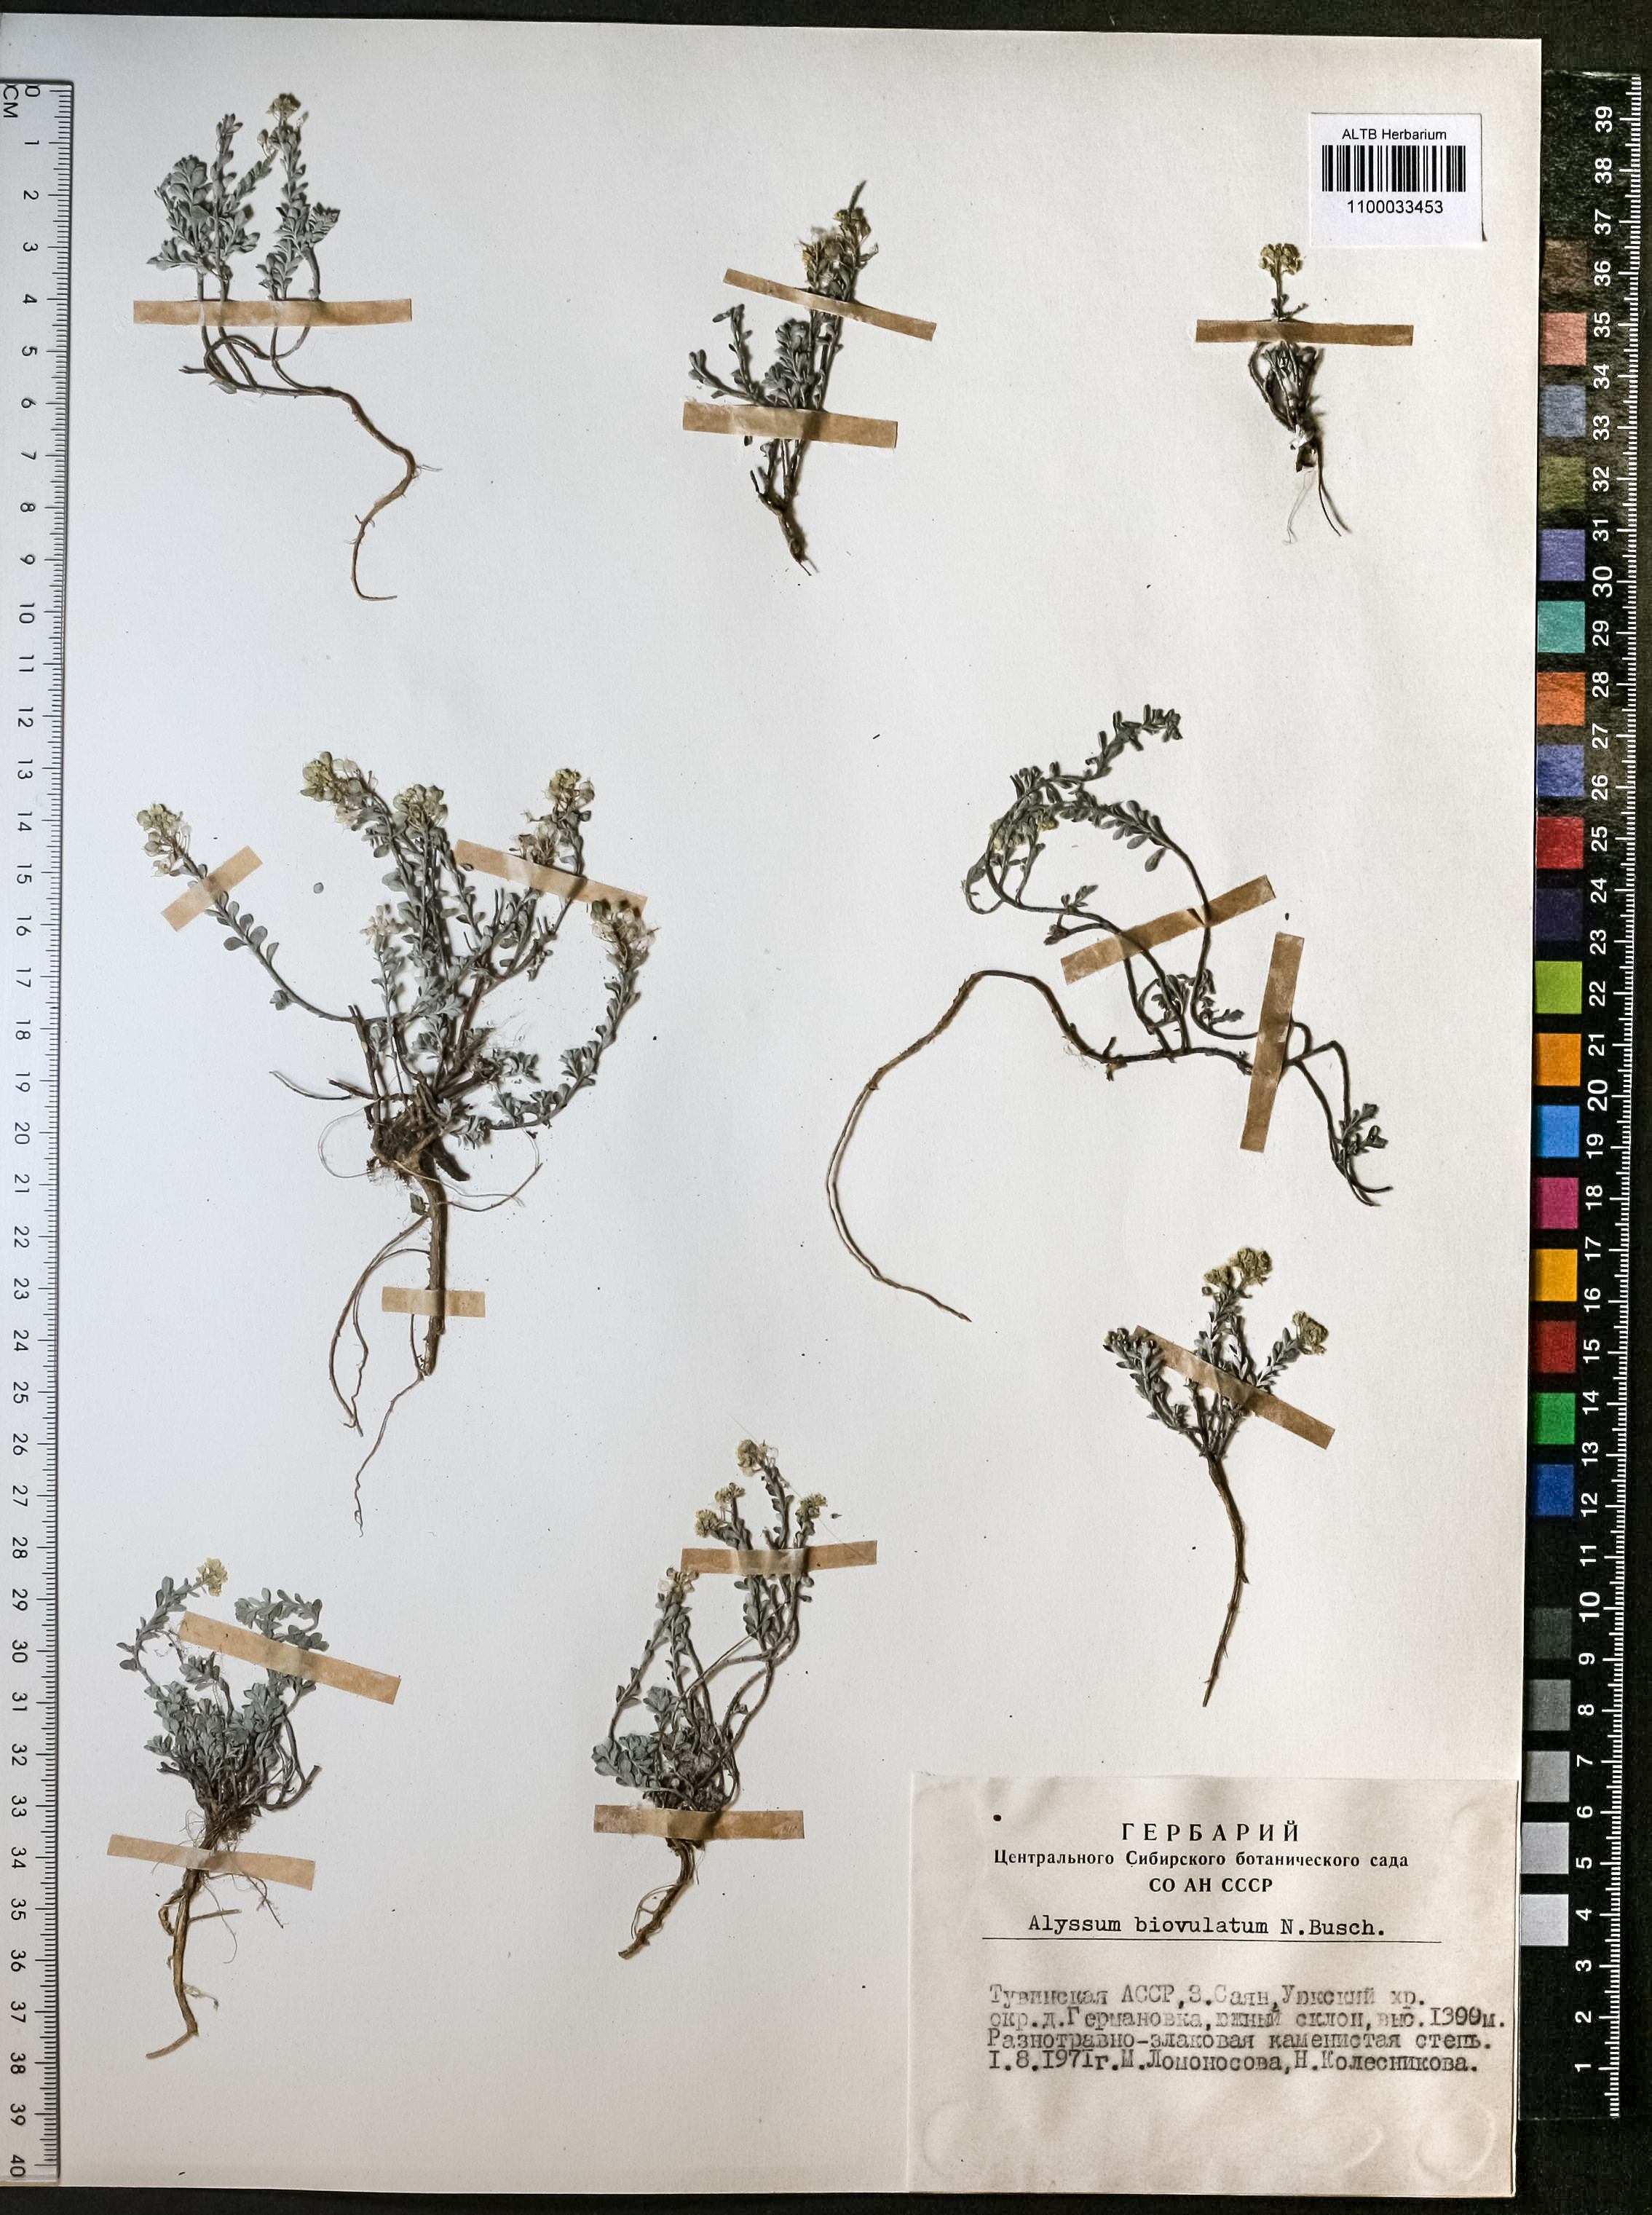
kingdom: Plantae
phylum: Tracheophyta
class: Magnoliopsida
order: Brassicales
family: Brassicaceae
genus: Odontarrhena
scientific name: Odontarrhena obovata
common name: American alyssum
